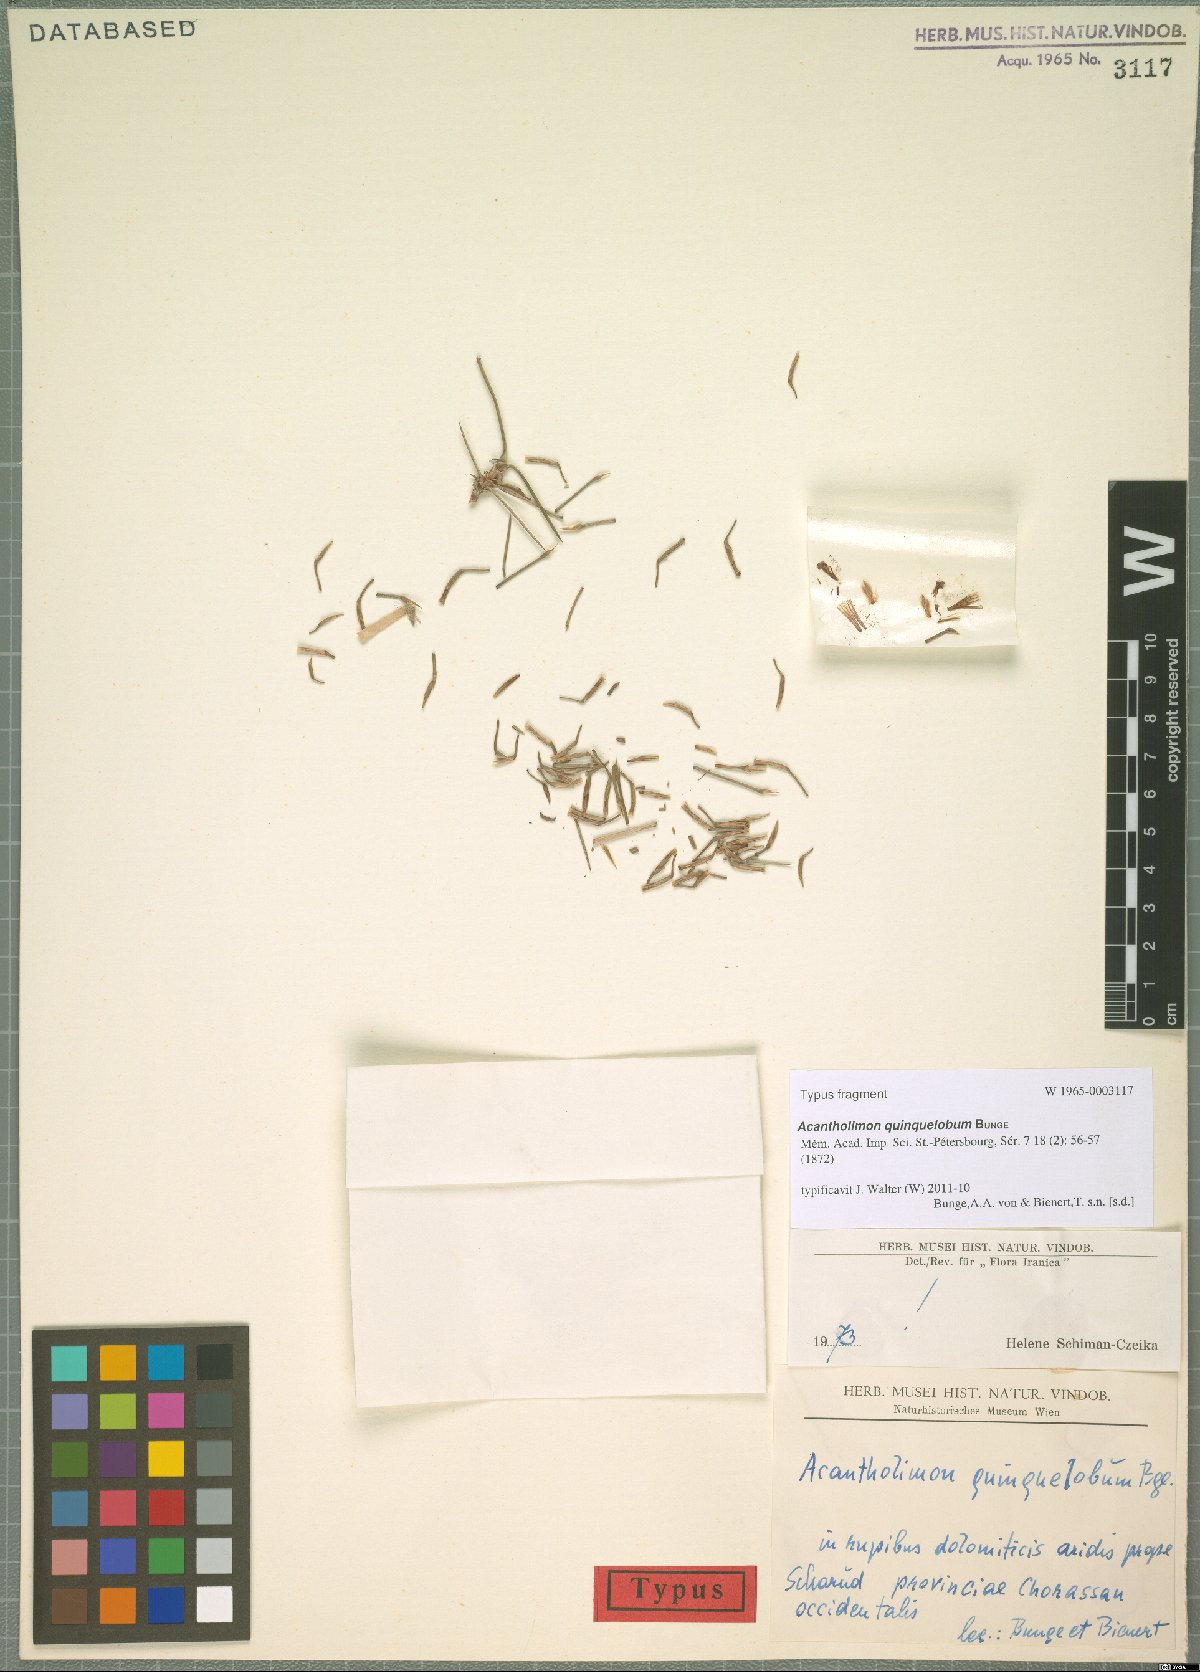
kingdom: Plantae
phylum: Tracheophyta
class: Magnoliopsida
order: Caryophyllales
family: Plumbaginaceae
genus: Acantholimon
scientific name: Acantholimon quinquelobum
